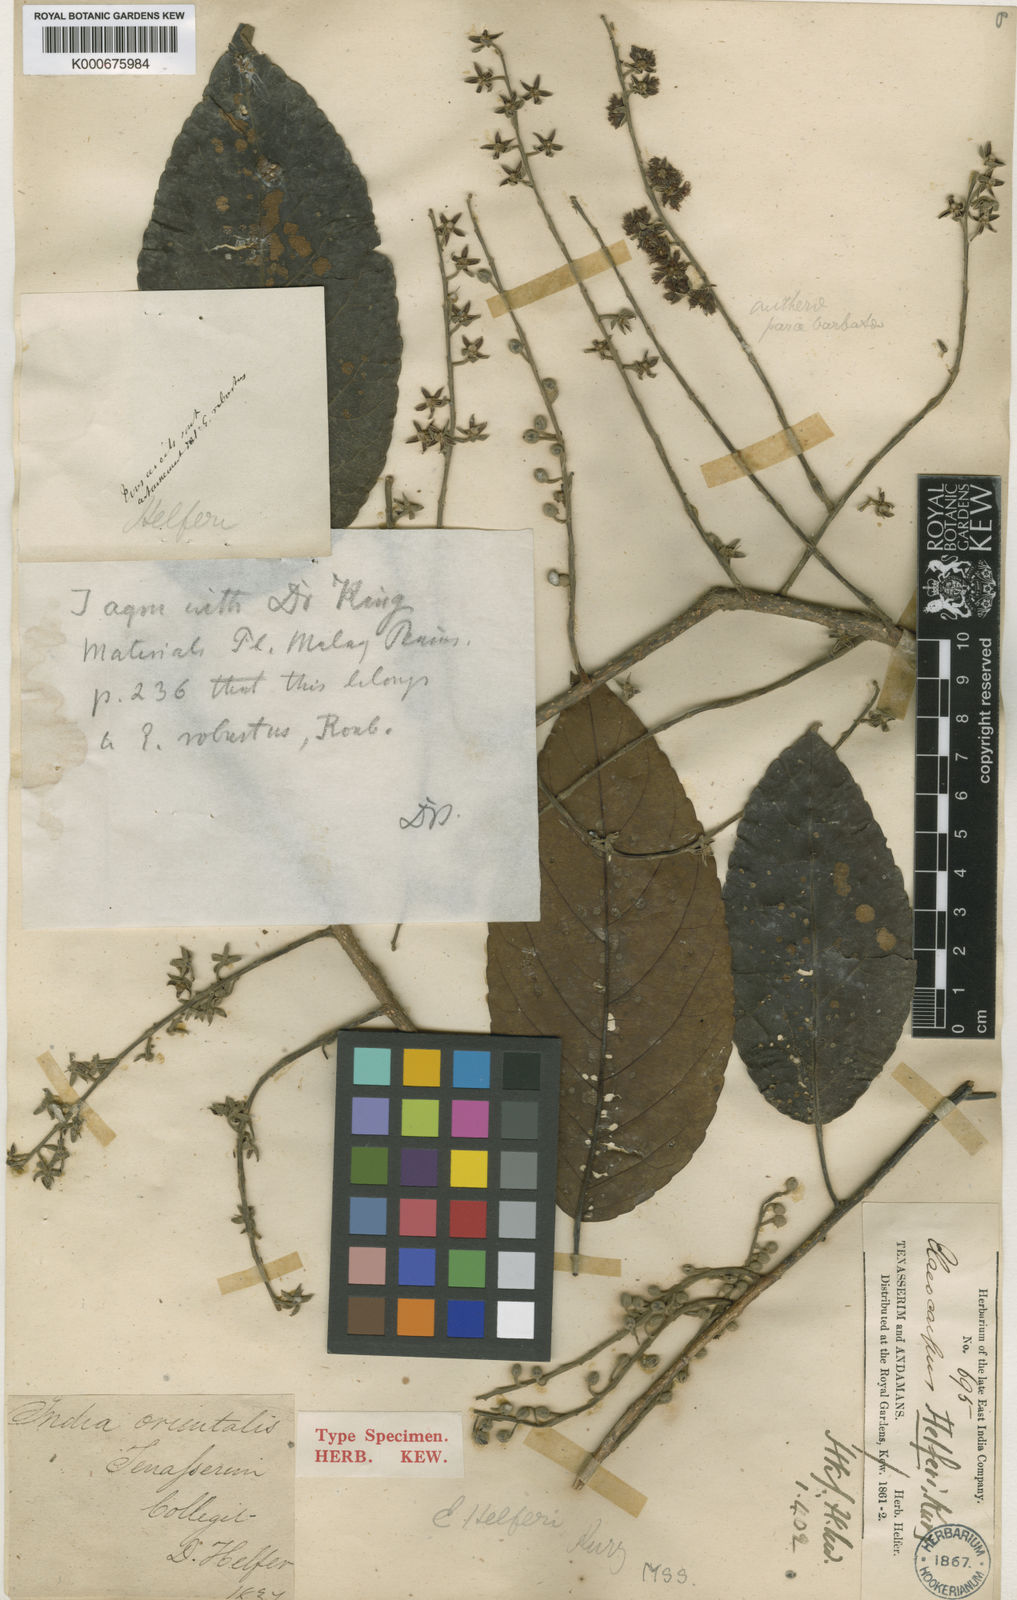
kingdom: Plantae
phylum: Tracheophyta
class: Magnoliopsida
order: Oxalidales
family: Elaeocarpaceae
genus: Elaeocarpus
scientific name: Elaeocarpus robustus
